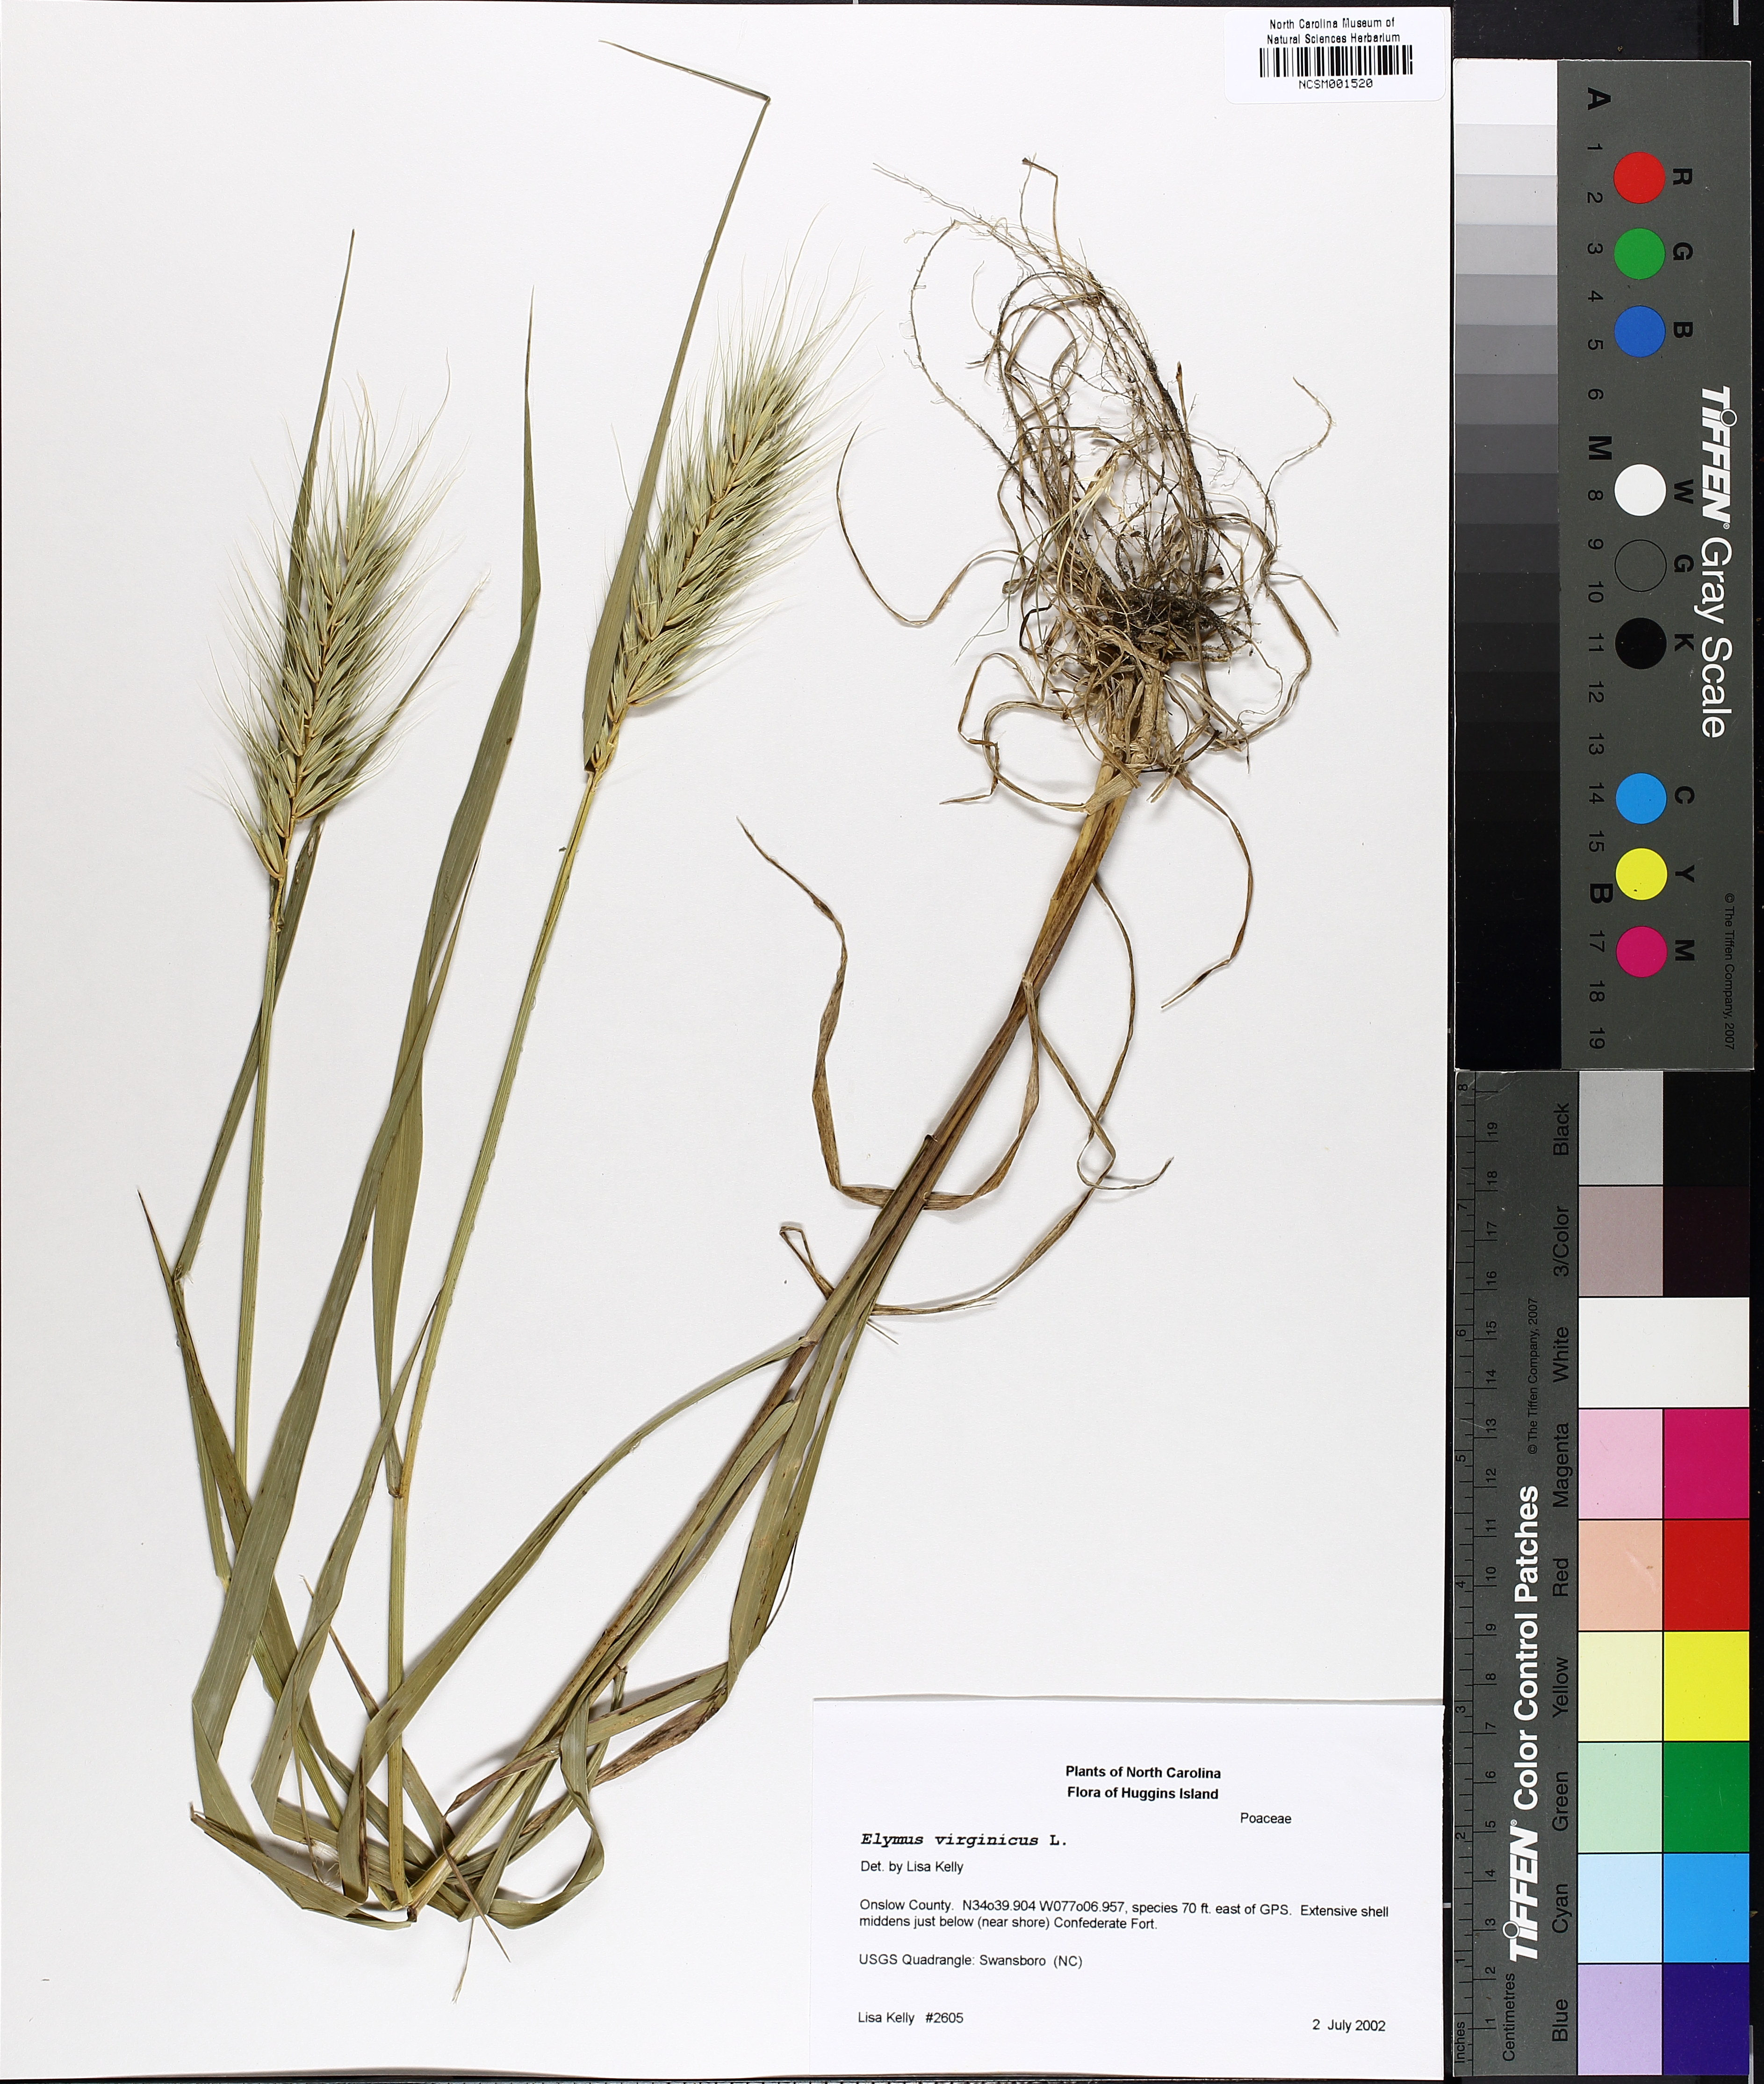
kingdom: Plantae
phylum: Tracheophyta
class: Liliopsida
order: Poales
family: Poaceae
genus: Elymus
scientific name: Elymus virginicus
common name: Common eastern wildrye
